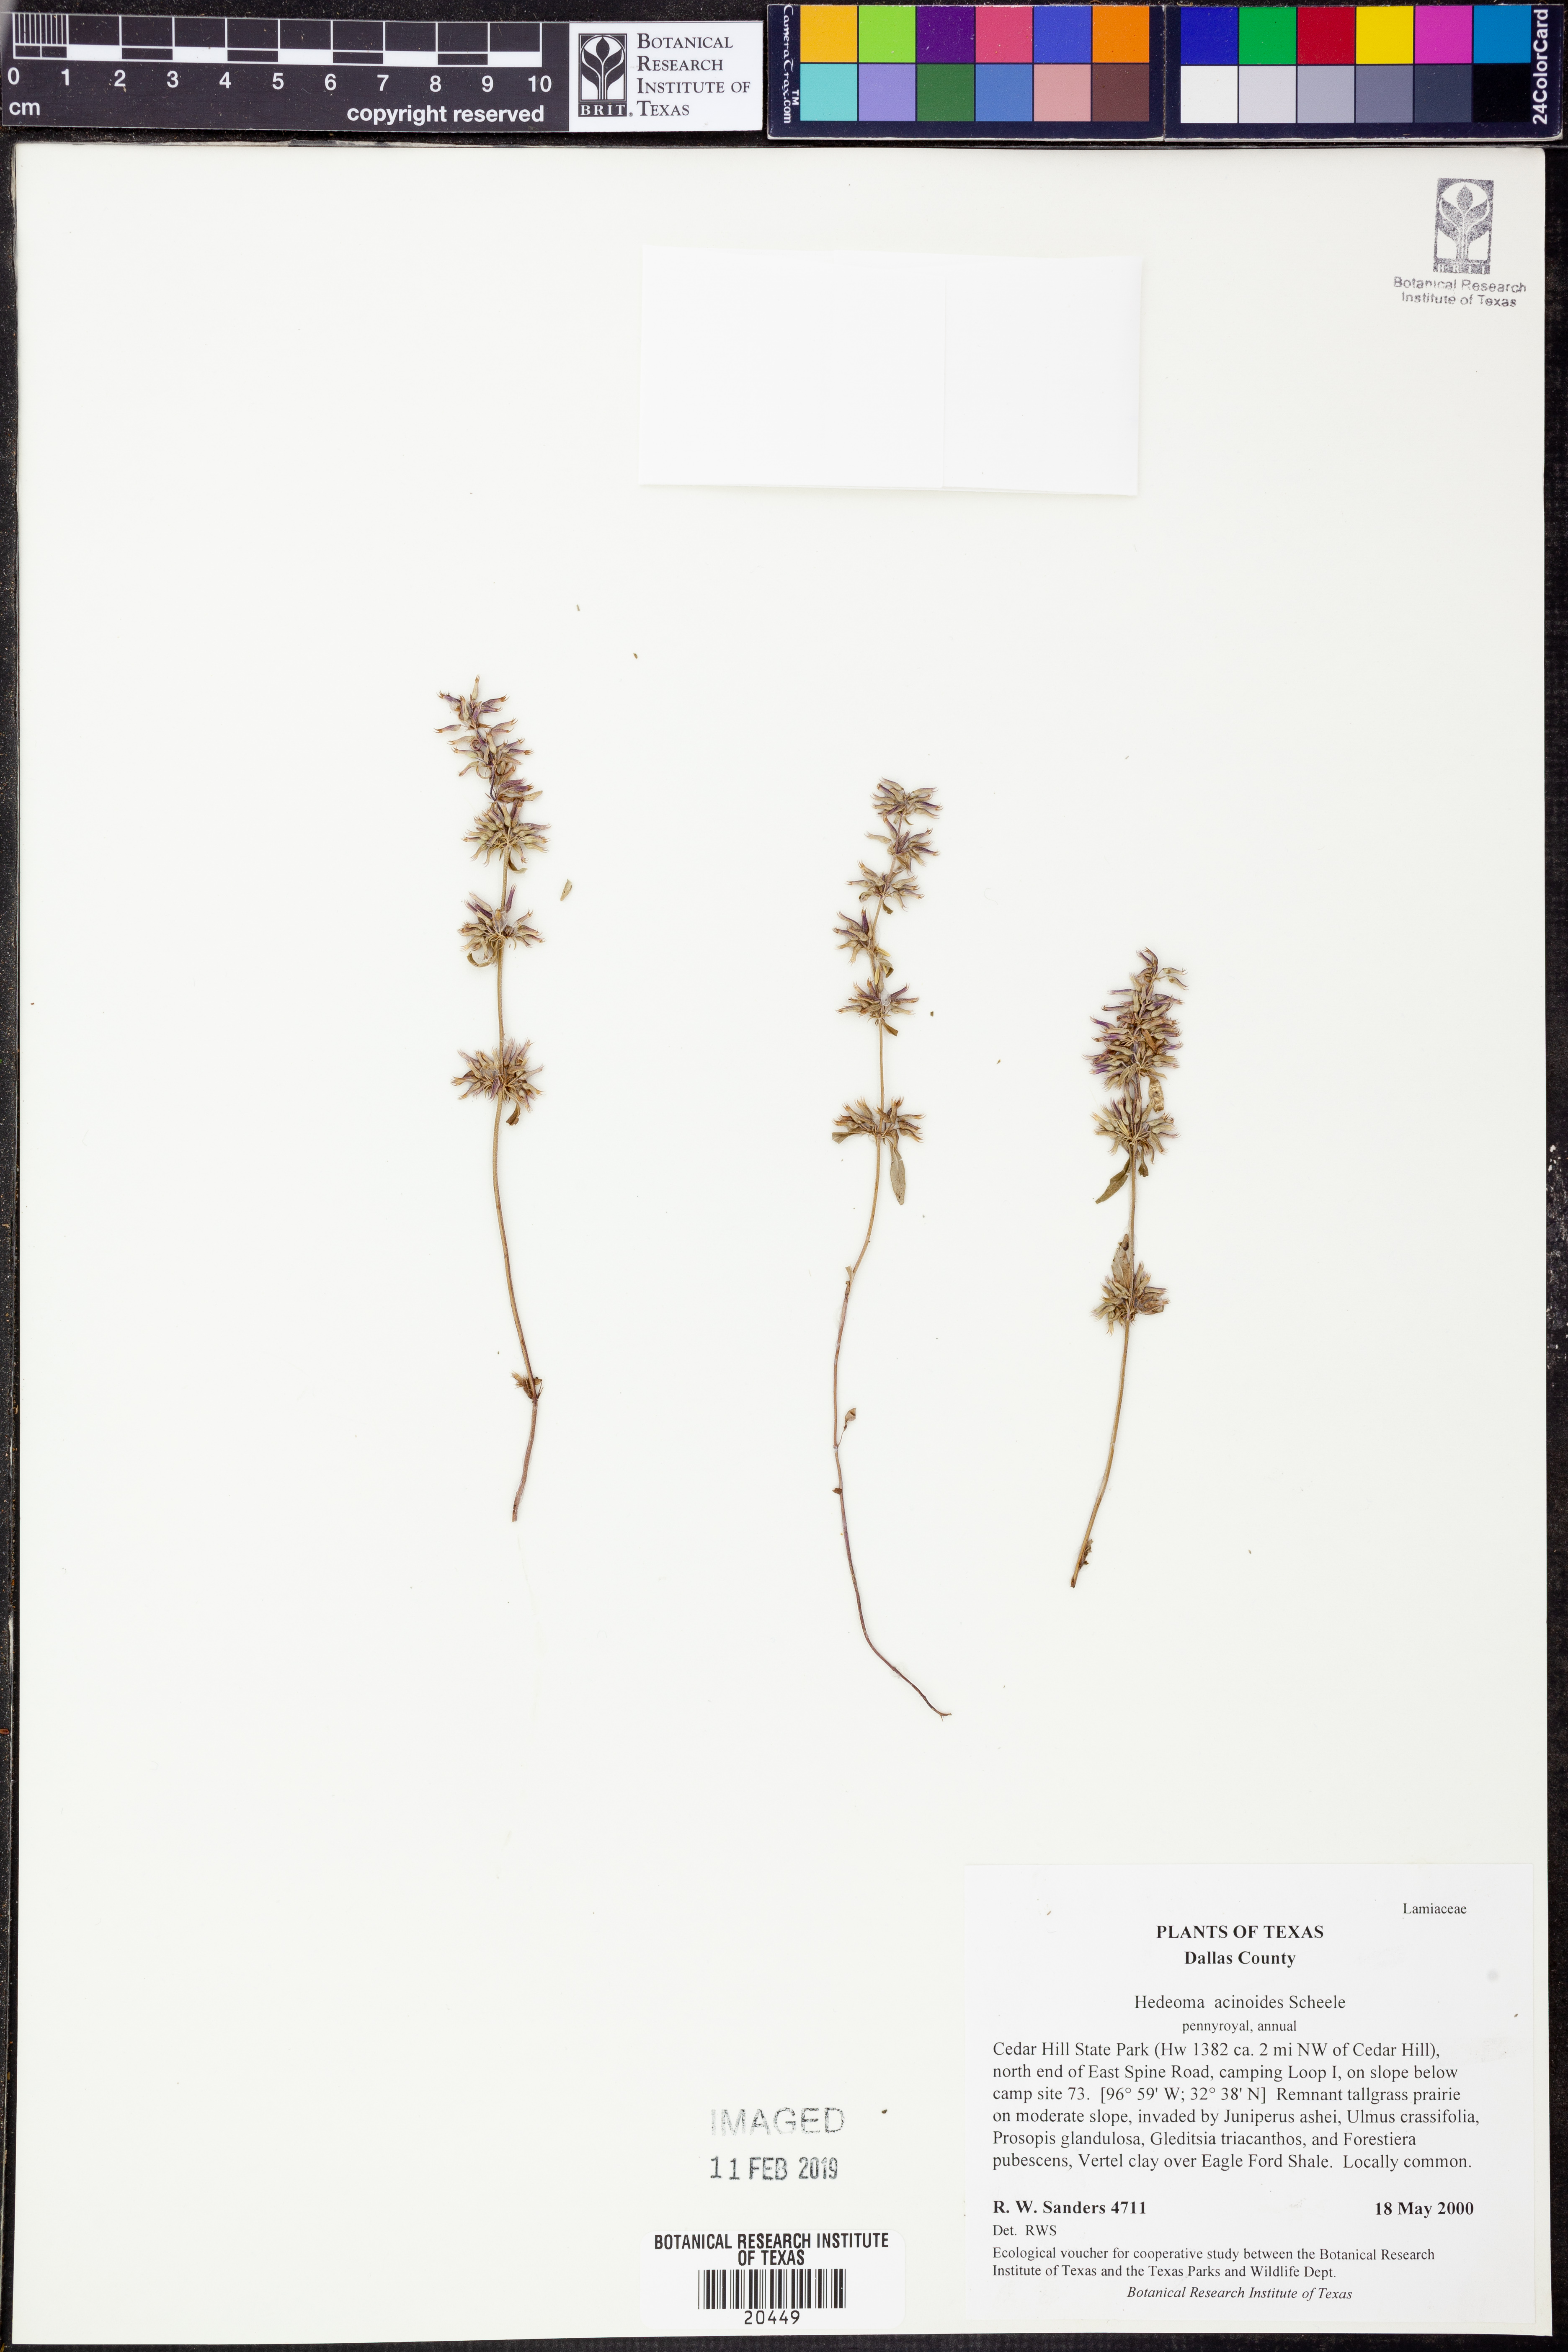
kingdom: Plantae
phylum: Tracheophyta
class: Magnoliopsida
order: Lamiales
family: Lamiaceae
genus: Hedeoma
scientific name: Hedeoma acinoides
